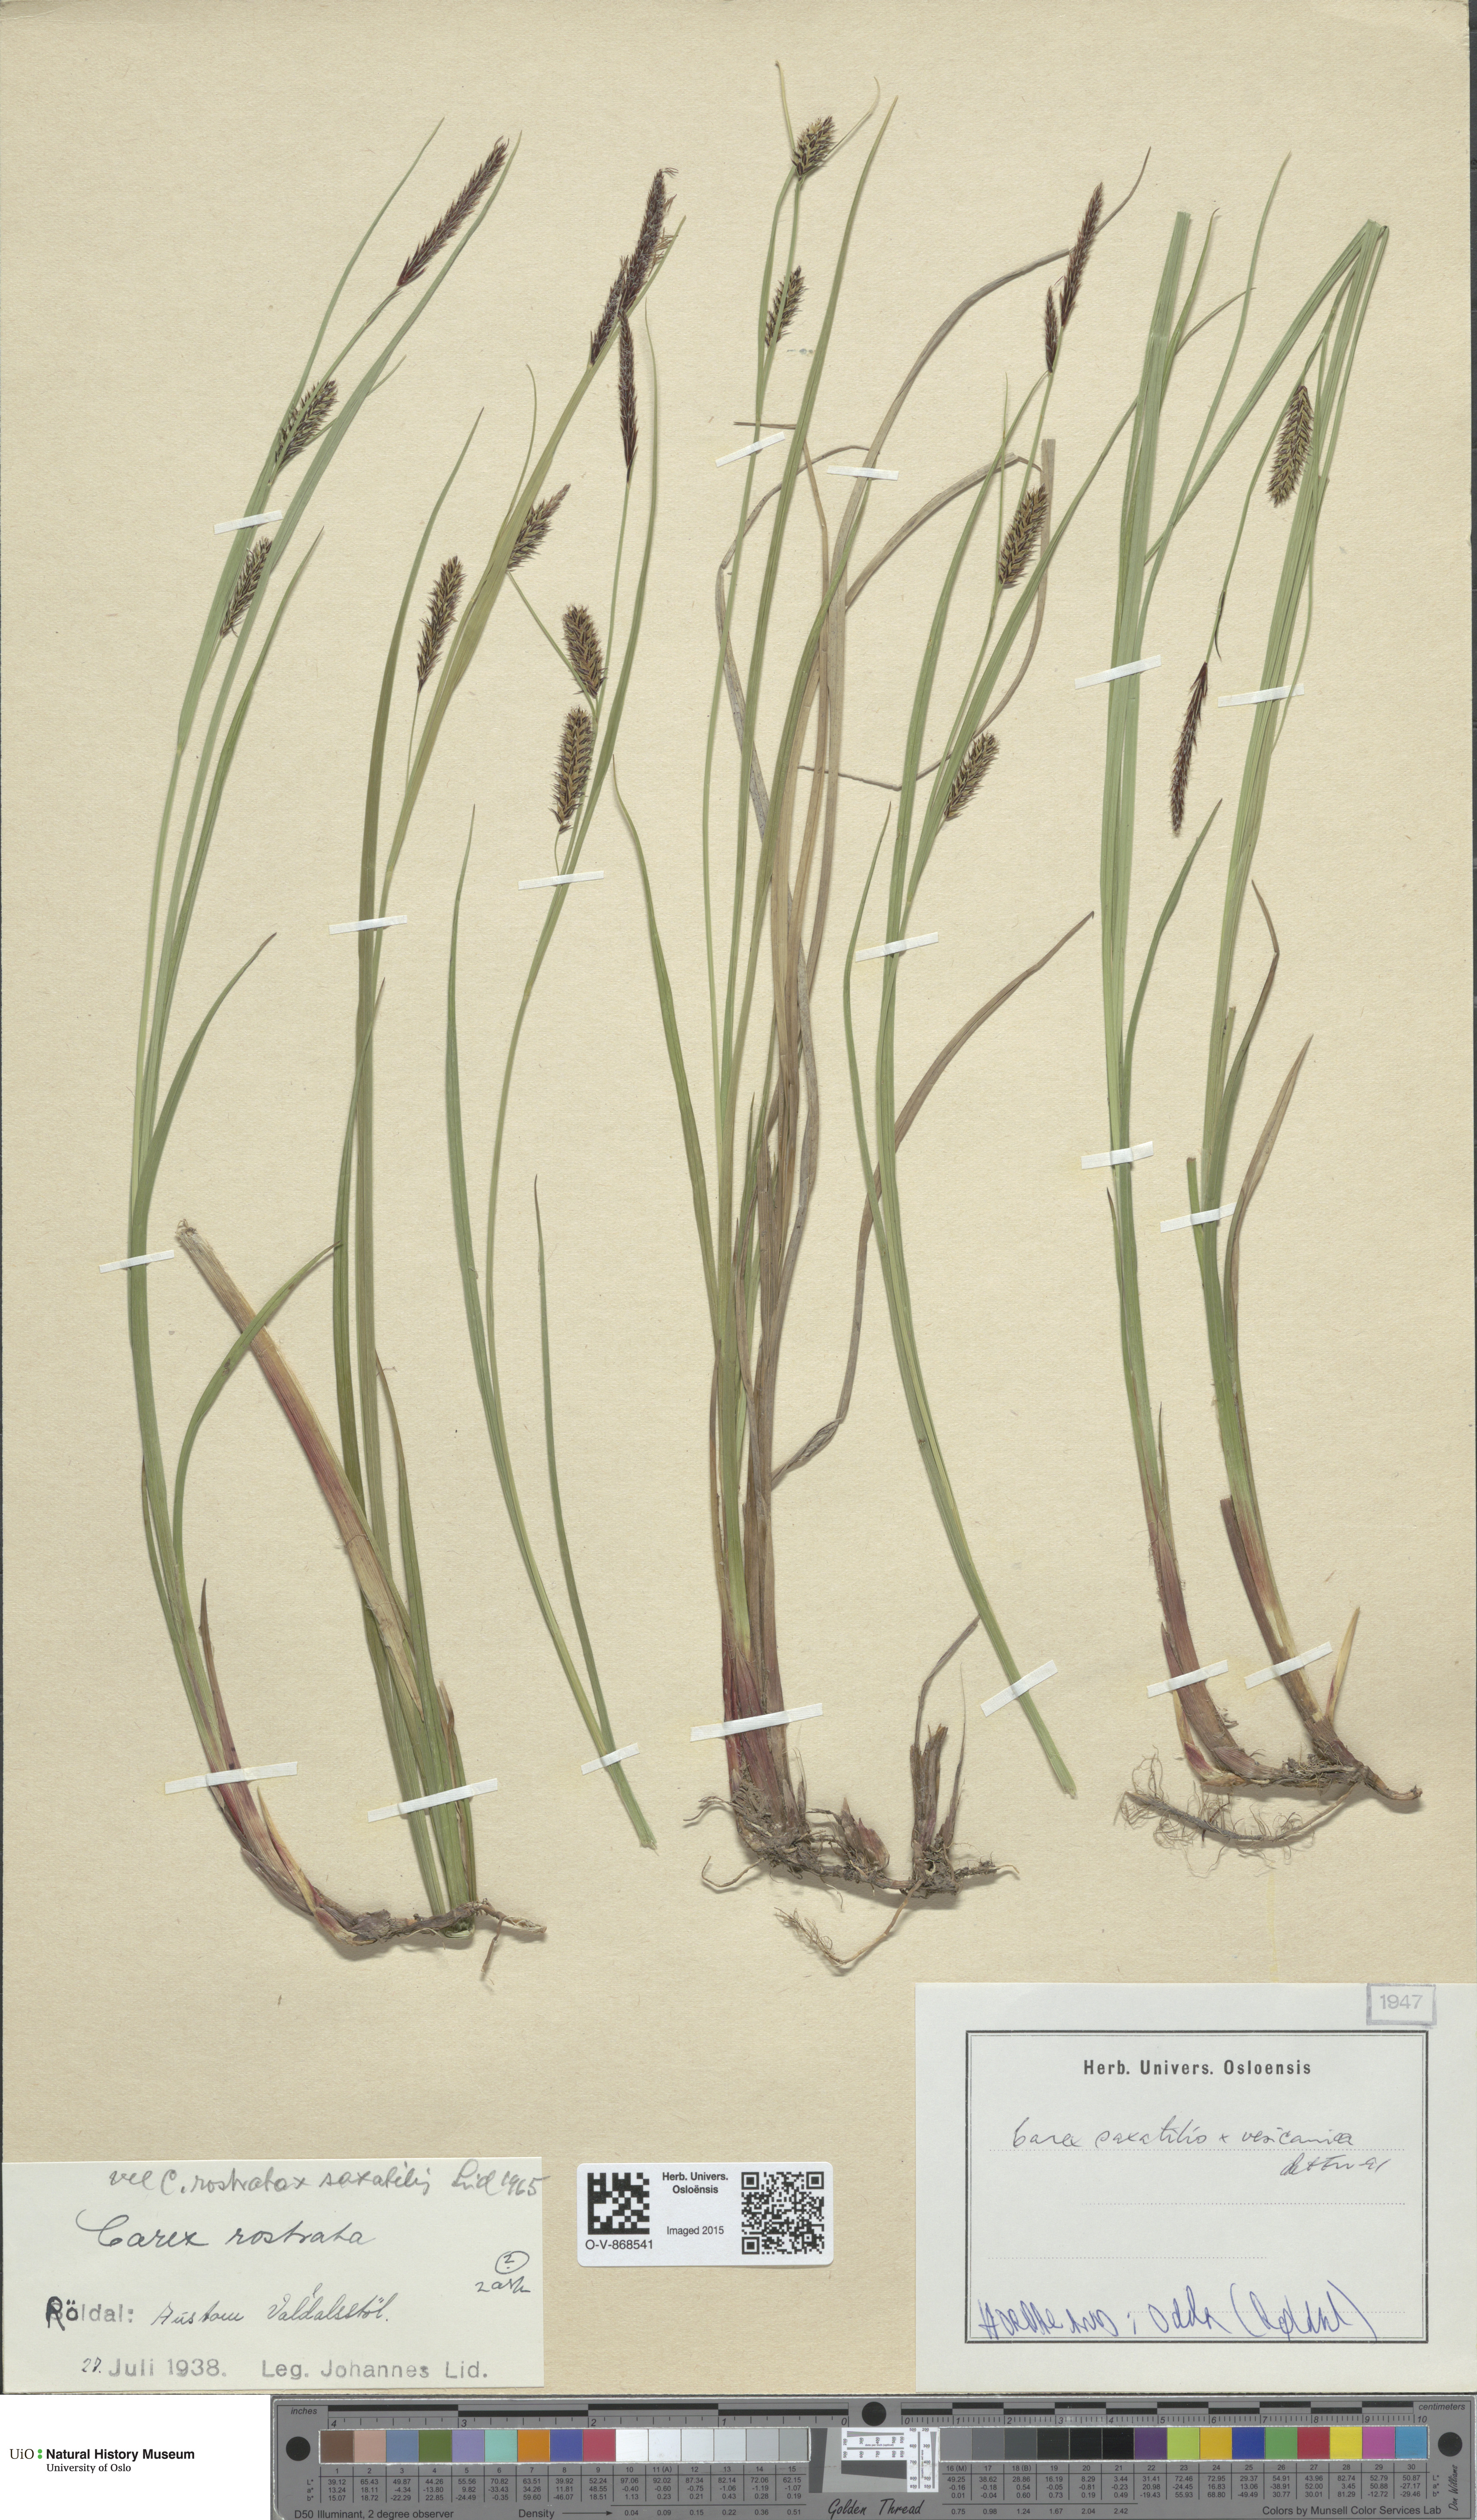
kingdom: Plantae
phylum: Tracheophyta
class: Liliopsida
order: Poales
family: Cyperaceae
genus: Carex
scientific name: Carex
